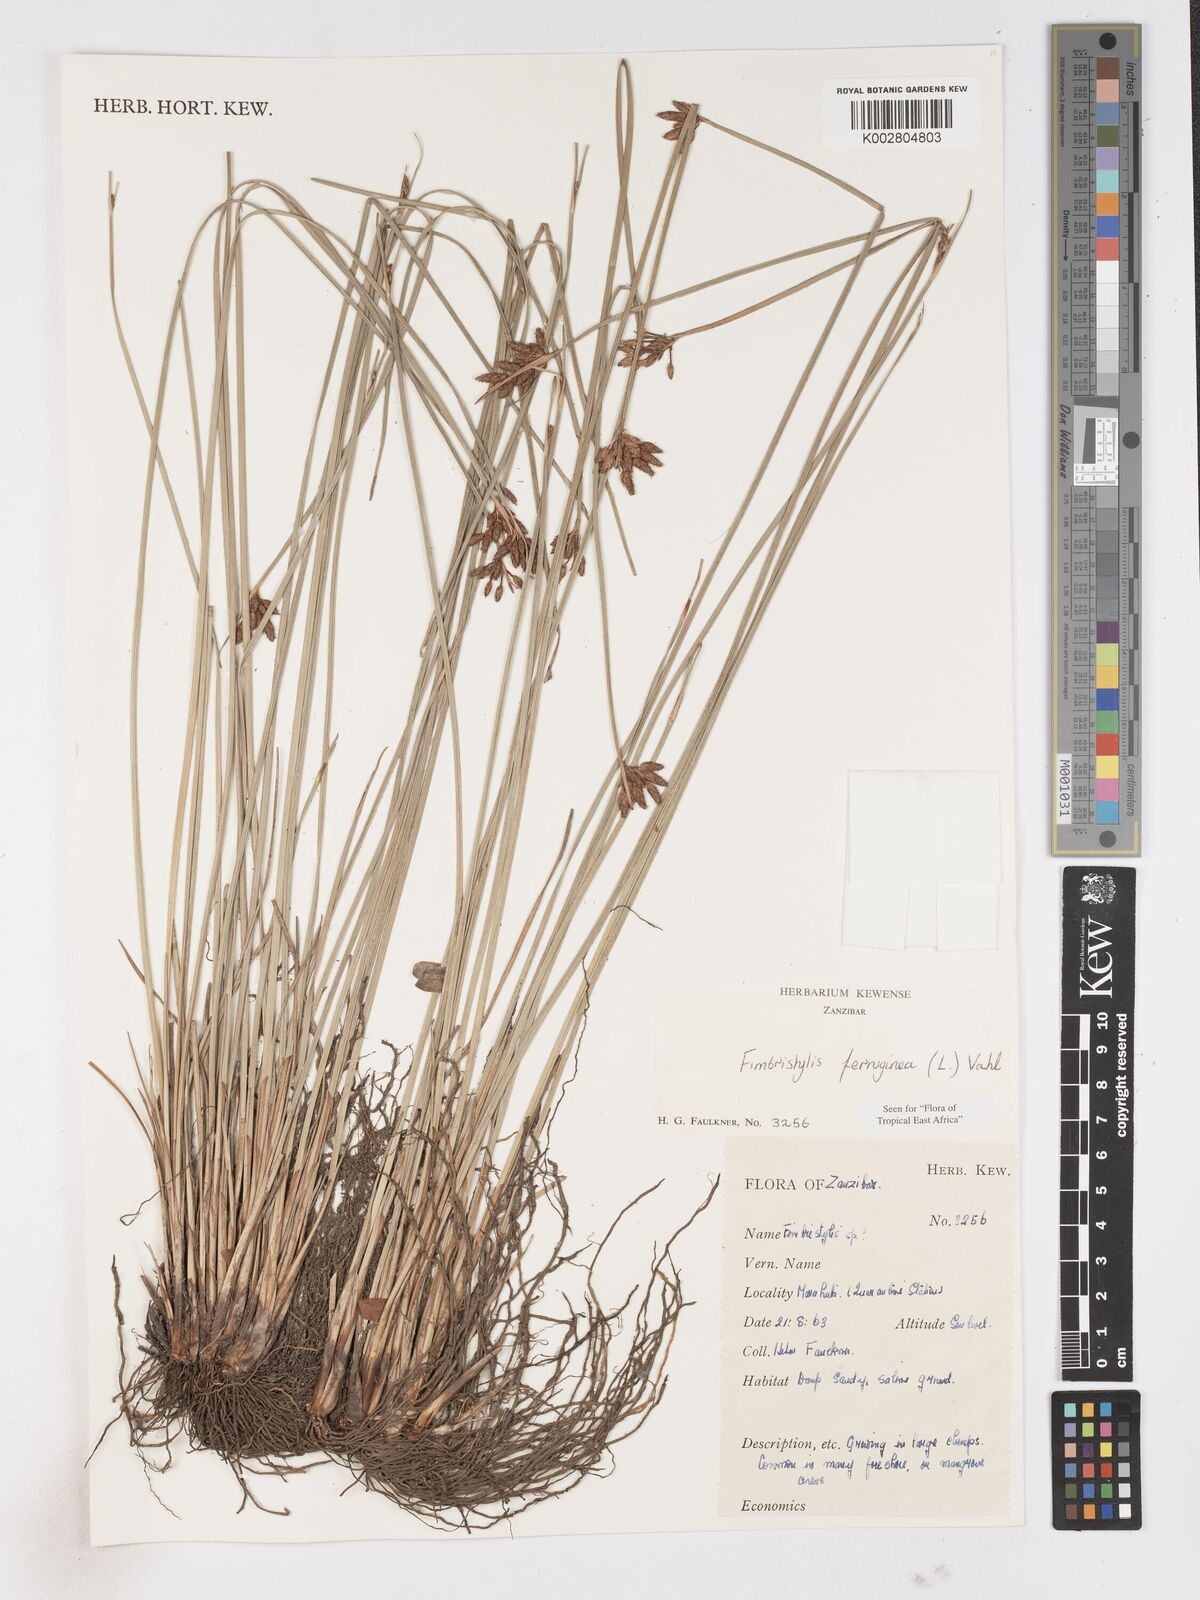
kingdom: Plantae
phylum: Tracheophyta
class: Liliopsida
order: Poales
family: Cyperaceae
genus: Fimbristylis
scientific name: Fimbristylis ferruginea
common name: West indian fimbry
